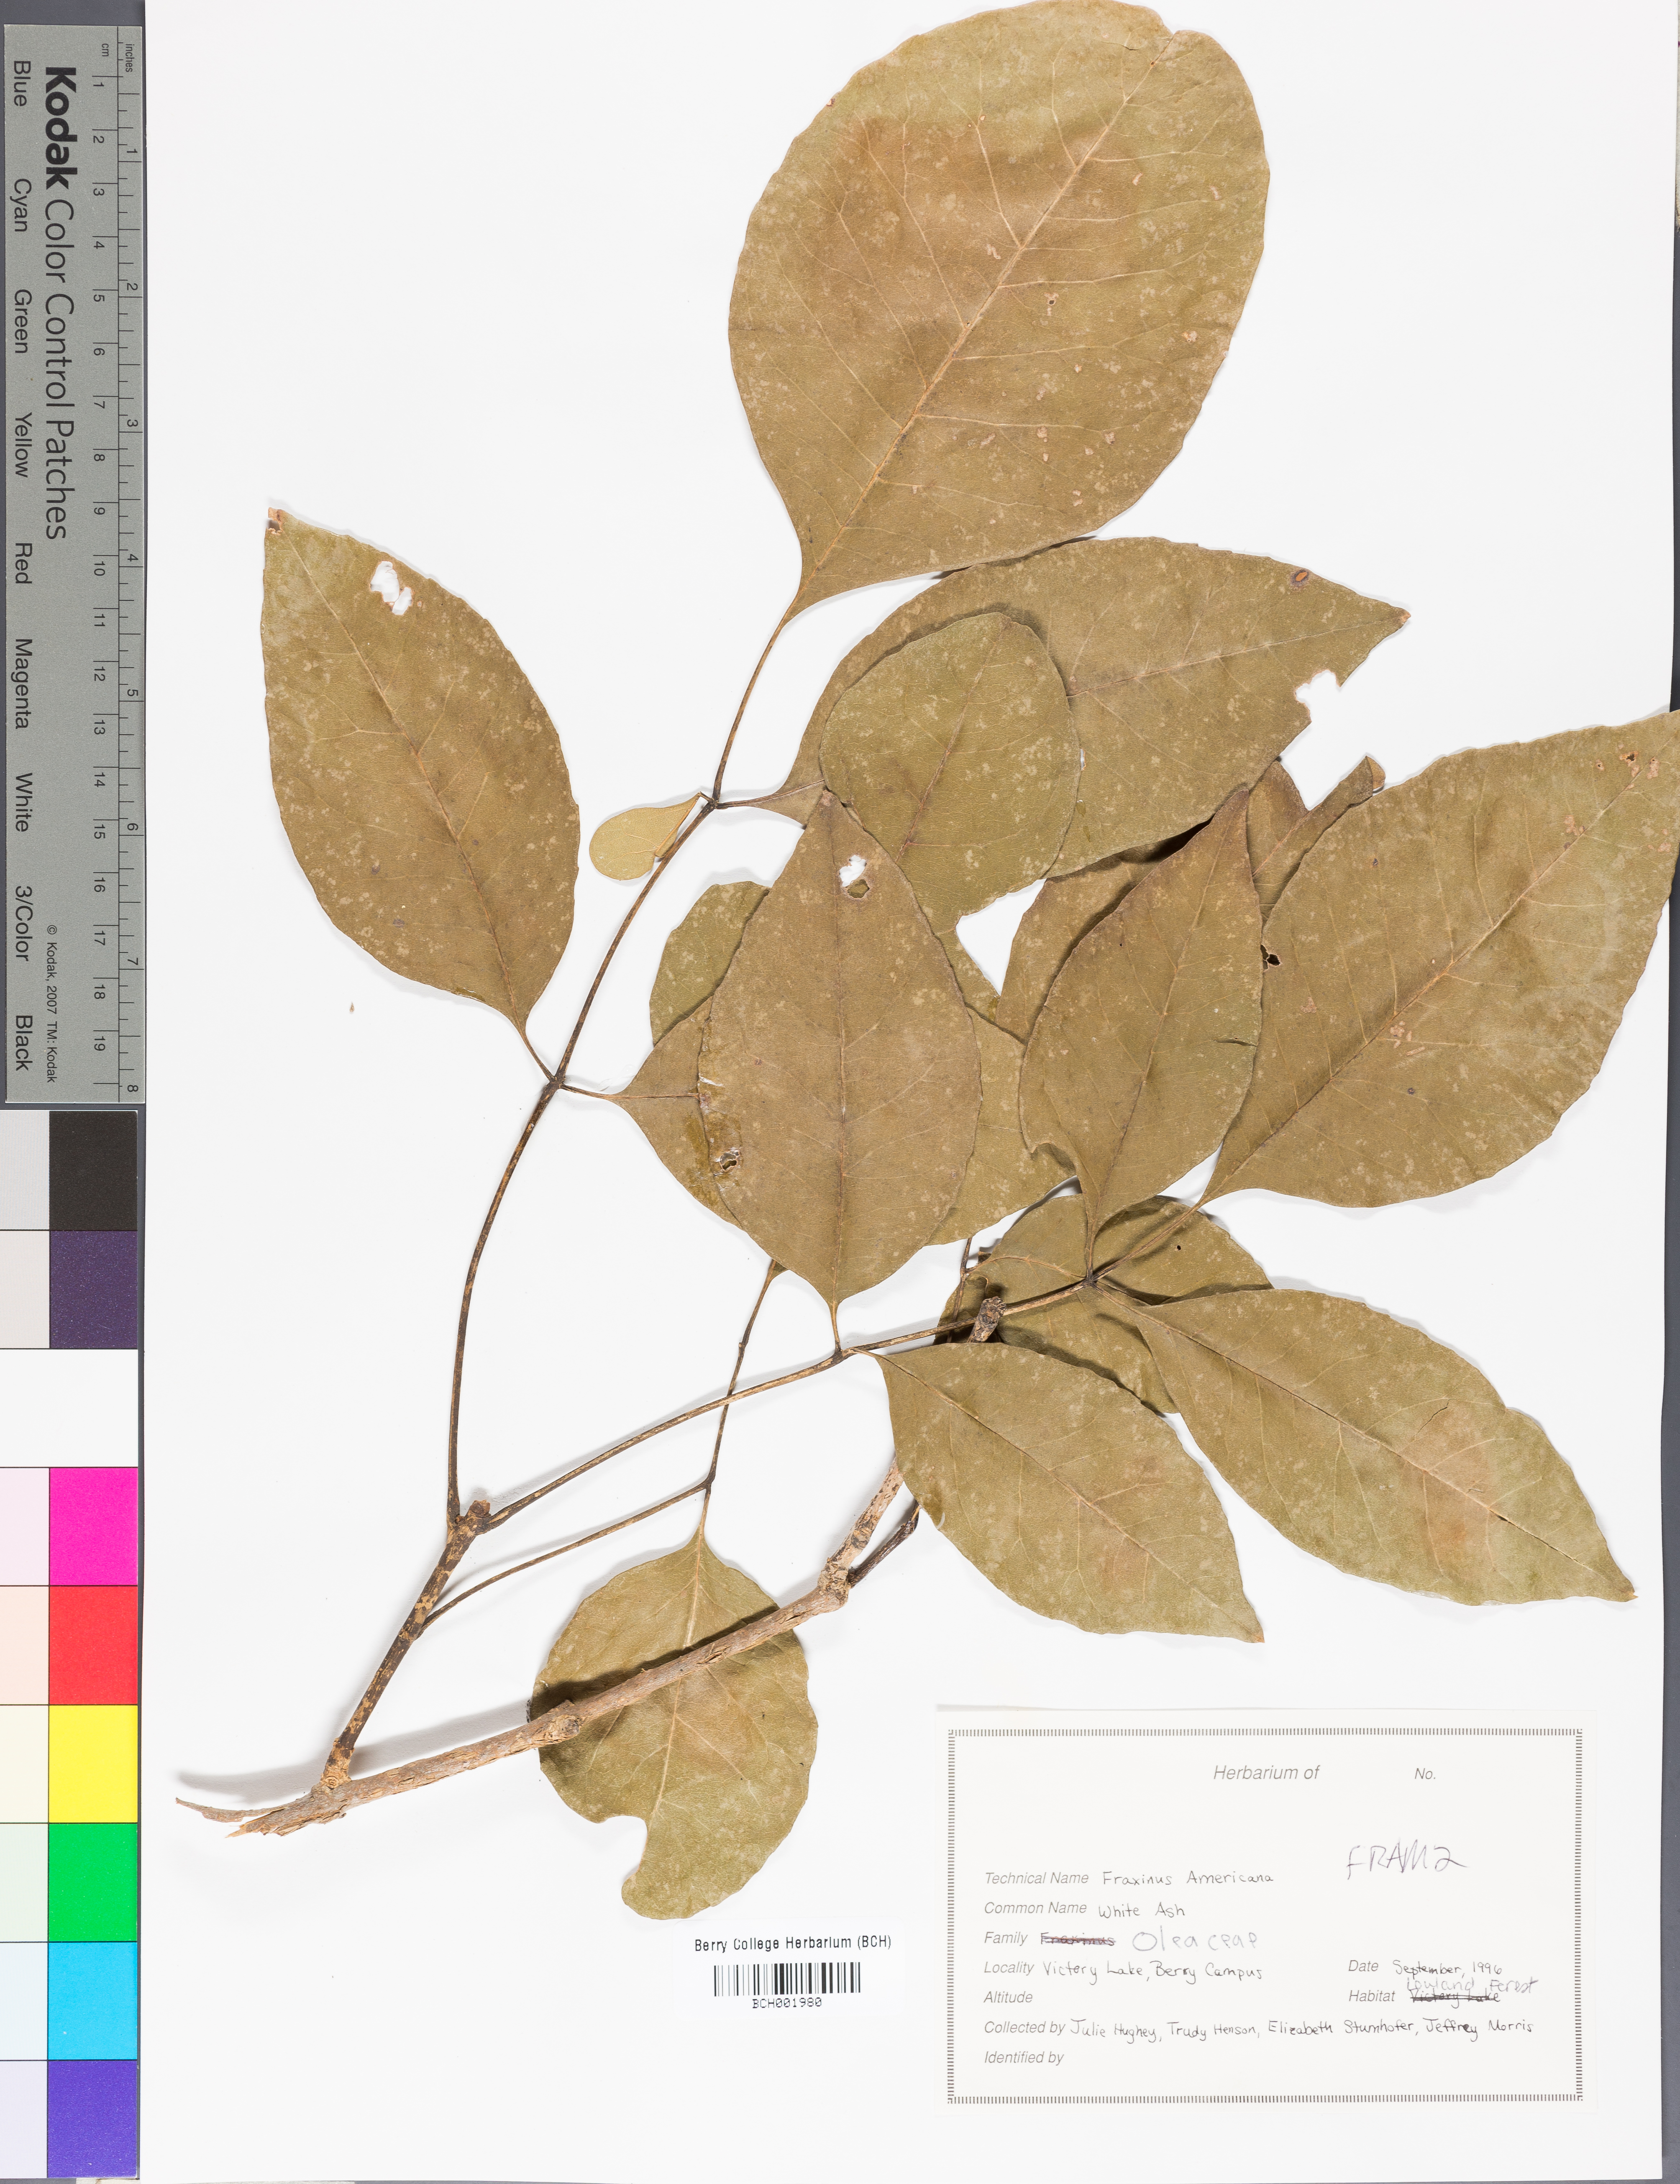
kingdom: Plantae
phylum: Tracheophyta
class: Magnoliopsida
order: Lamiales
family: Oleaceae
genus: Fraxinus
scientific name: Fraxinus americana
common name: White ash
